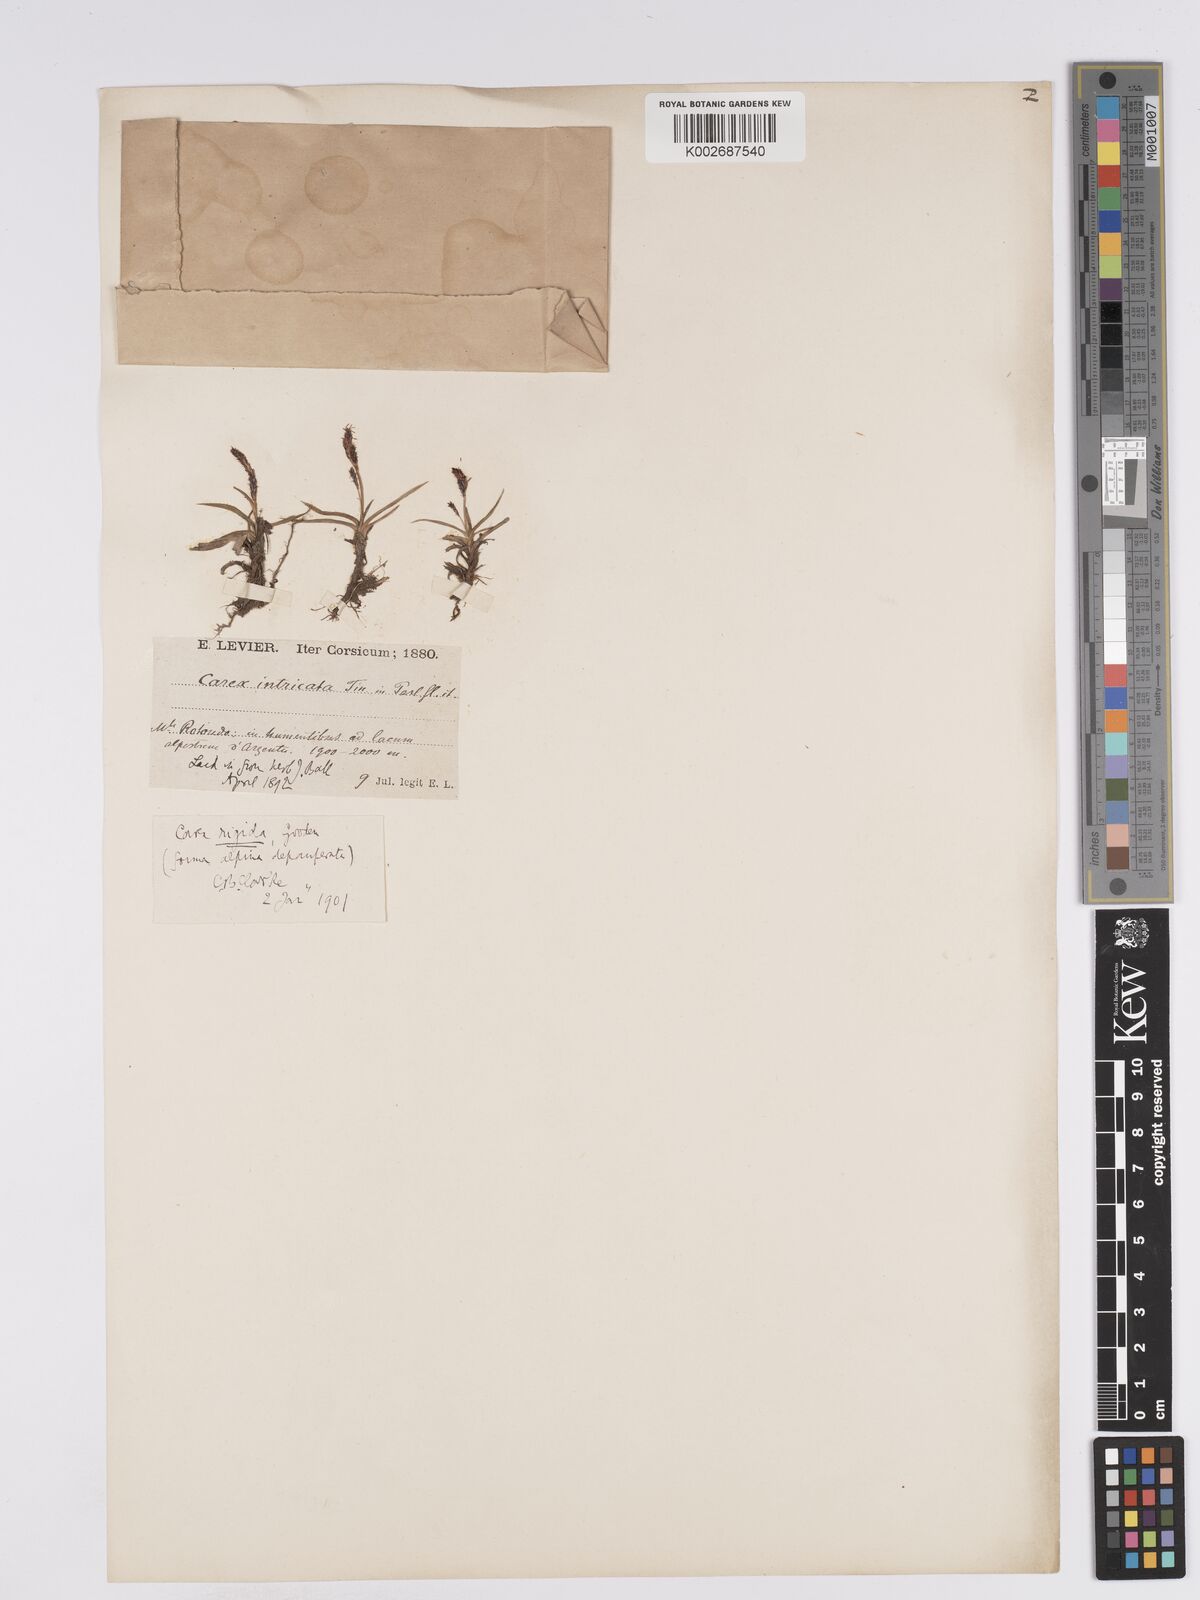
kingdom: Plantae
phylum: Tracheophyta
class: Liliopsida
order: Poales
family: Cyperaceae
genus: Carex
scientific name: Carex nigra
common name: Common sedge
